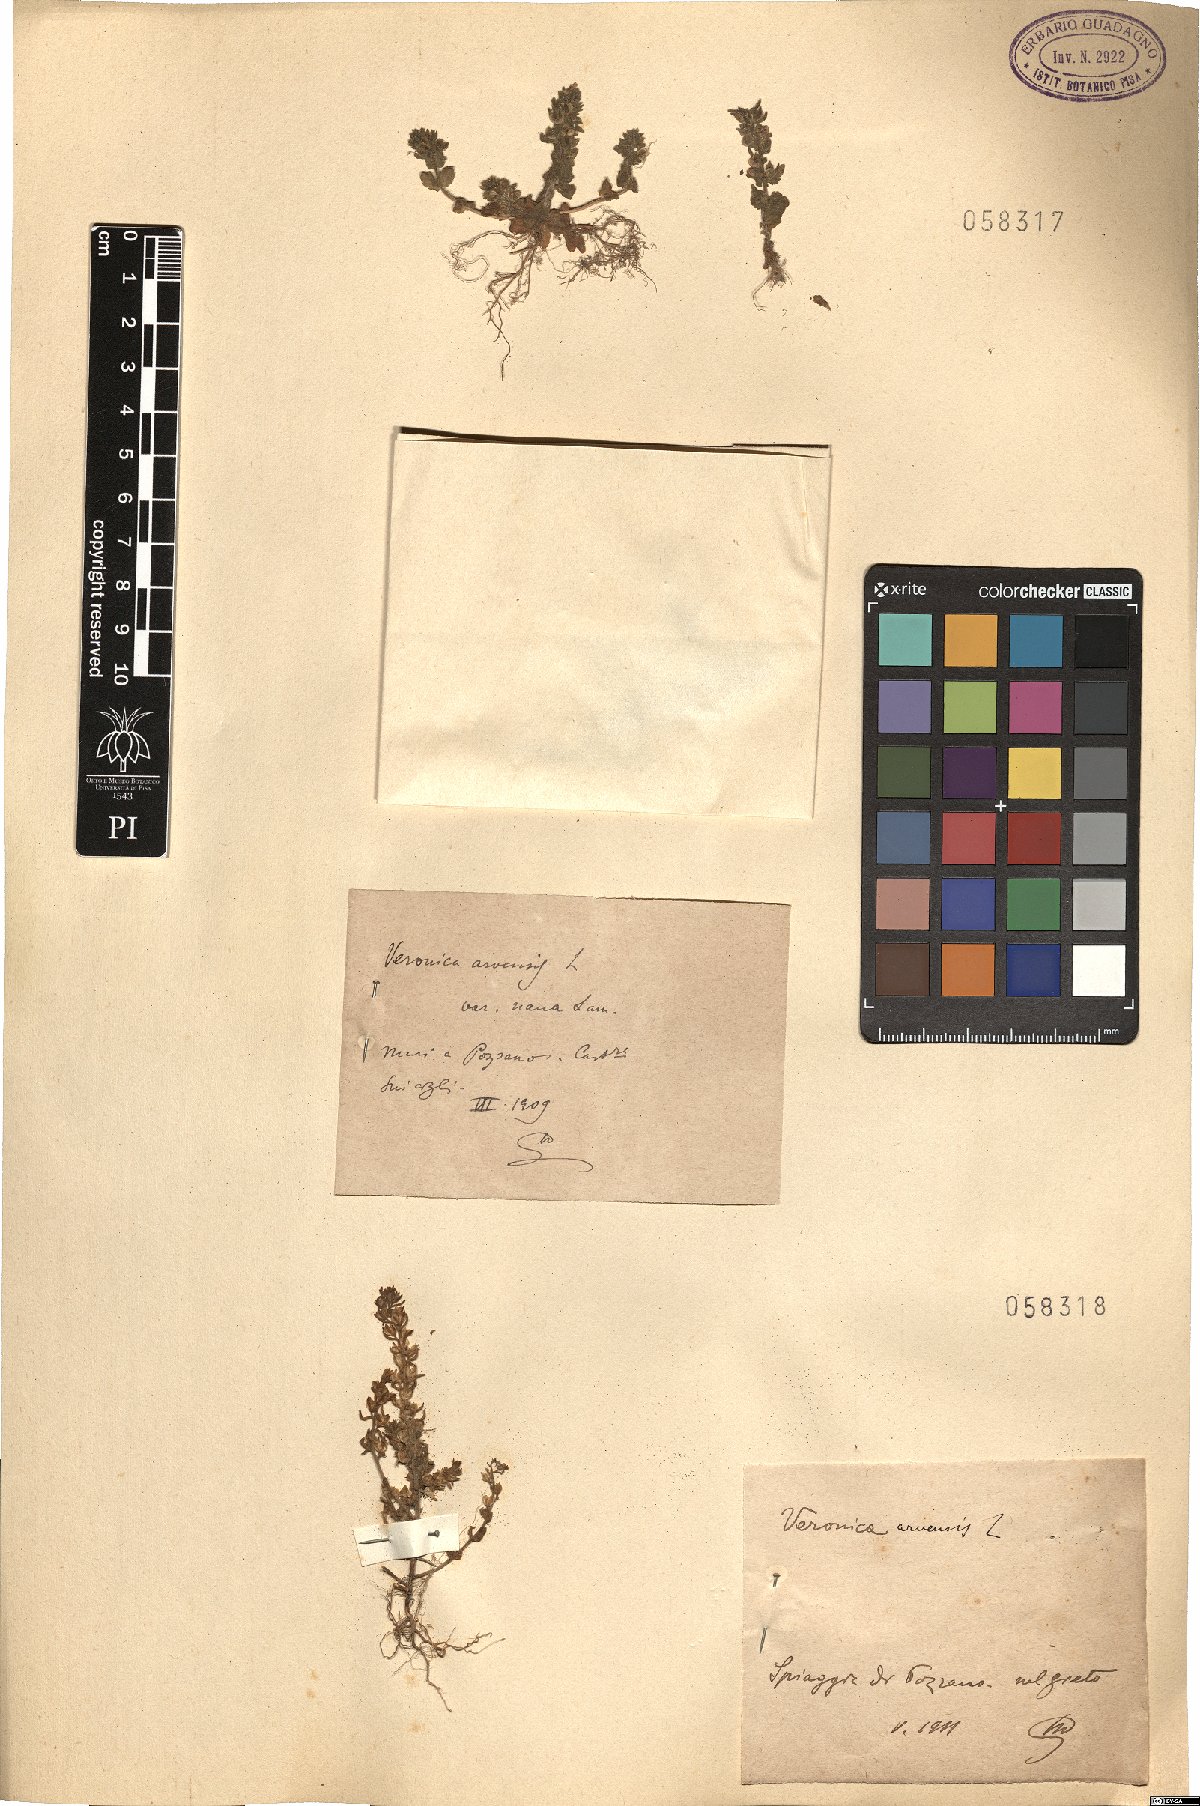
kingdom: Plantae
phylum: Tracheophyta
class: Magnoliopsida
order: Lamiales
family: Plantaginaceae
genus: Veronica
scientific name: Veronica arvensis
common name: Corn speedwell
